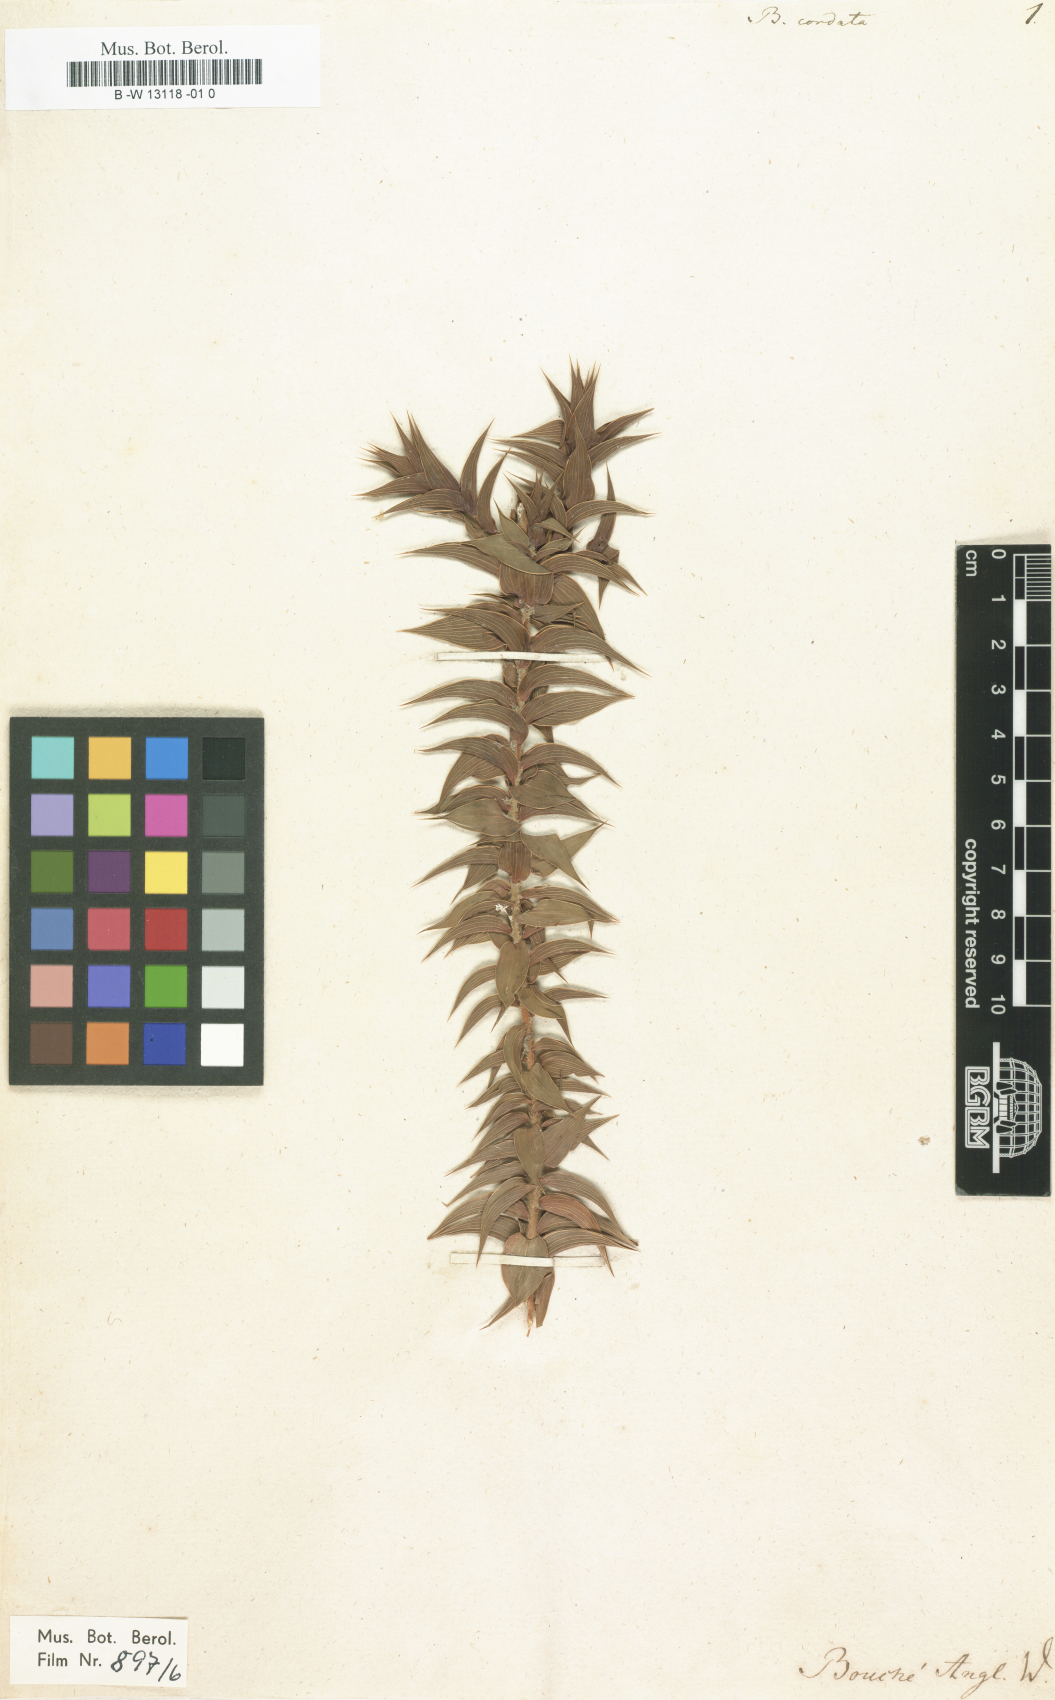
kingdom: Plantae
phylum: Tracheophyta
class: Magnoliopsida
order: Fabales
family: Fabaceae
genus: Aspalathus
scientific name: Aspalathus cordata
